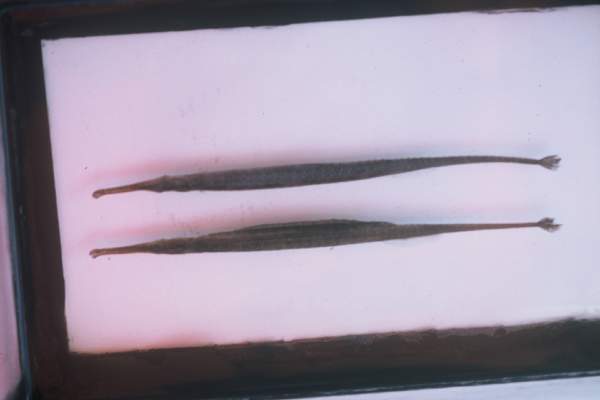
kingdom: Animalia
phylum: Chordata
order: Syngnathiformes
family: Syngnathidae
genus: Microphis
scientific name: Microphis fluviatilis
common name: Freshwater pipefish
